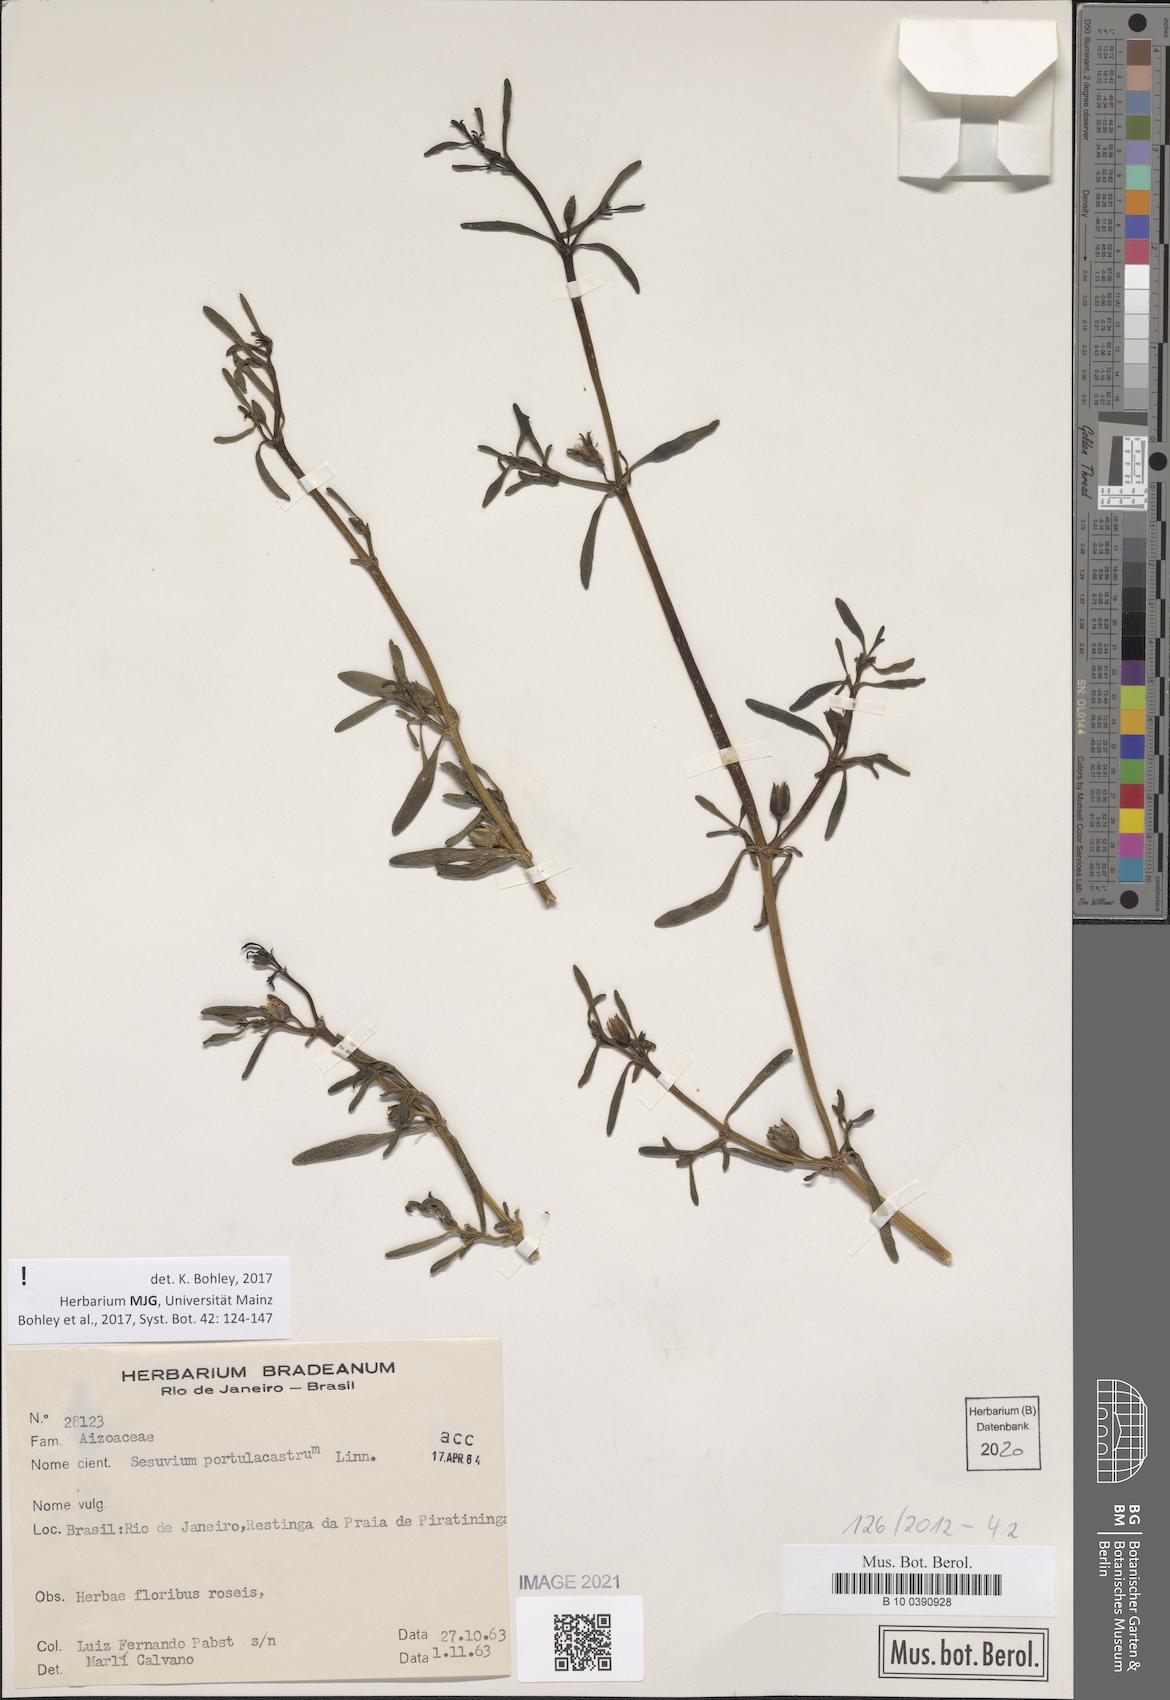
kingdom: Plantae
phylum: Tracheophyta
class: Magnoliopsida
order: Caryophyllales
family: Aizoaceae
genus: Sesuvium
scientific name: Sesuvium portulacastrum
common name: Sea-purslane
